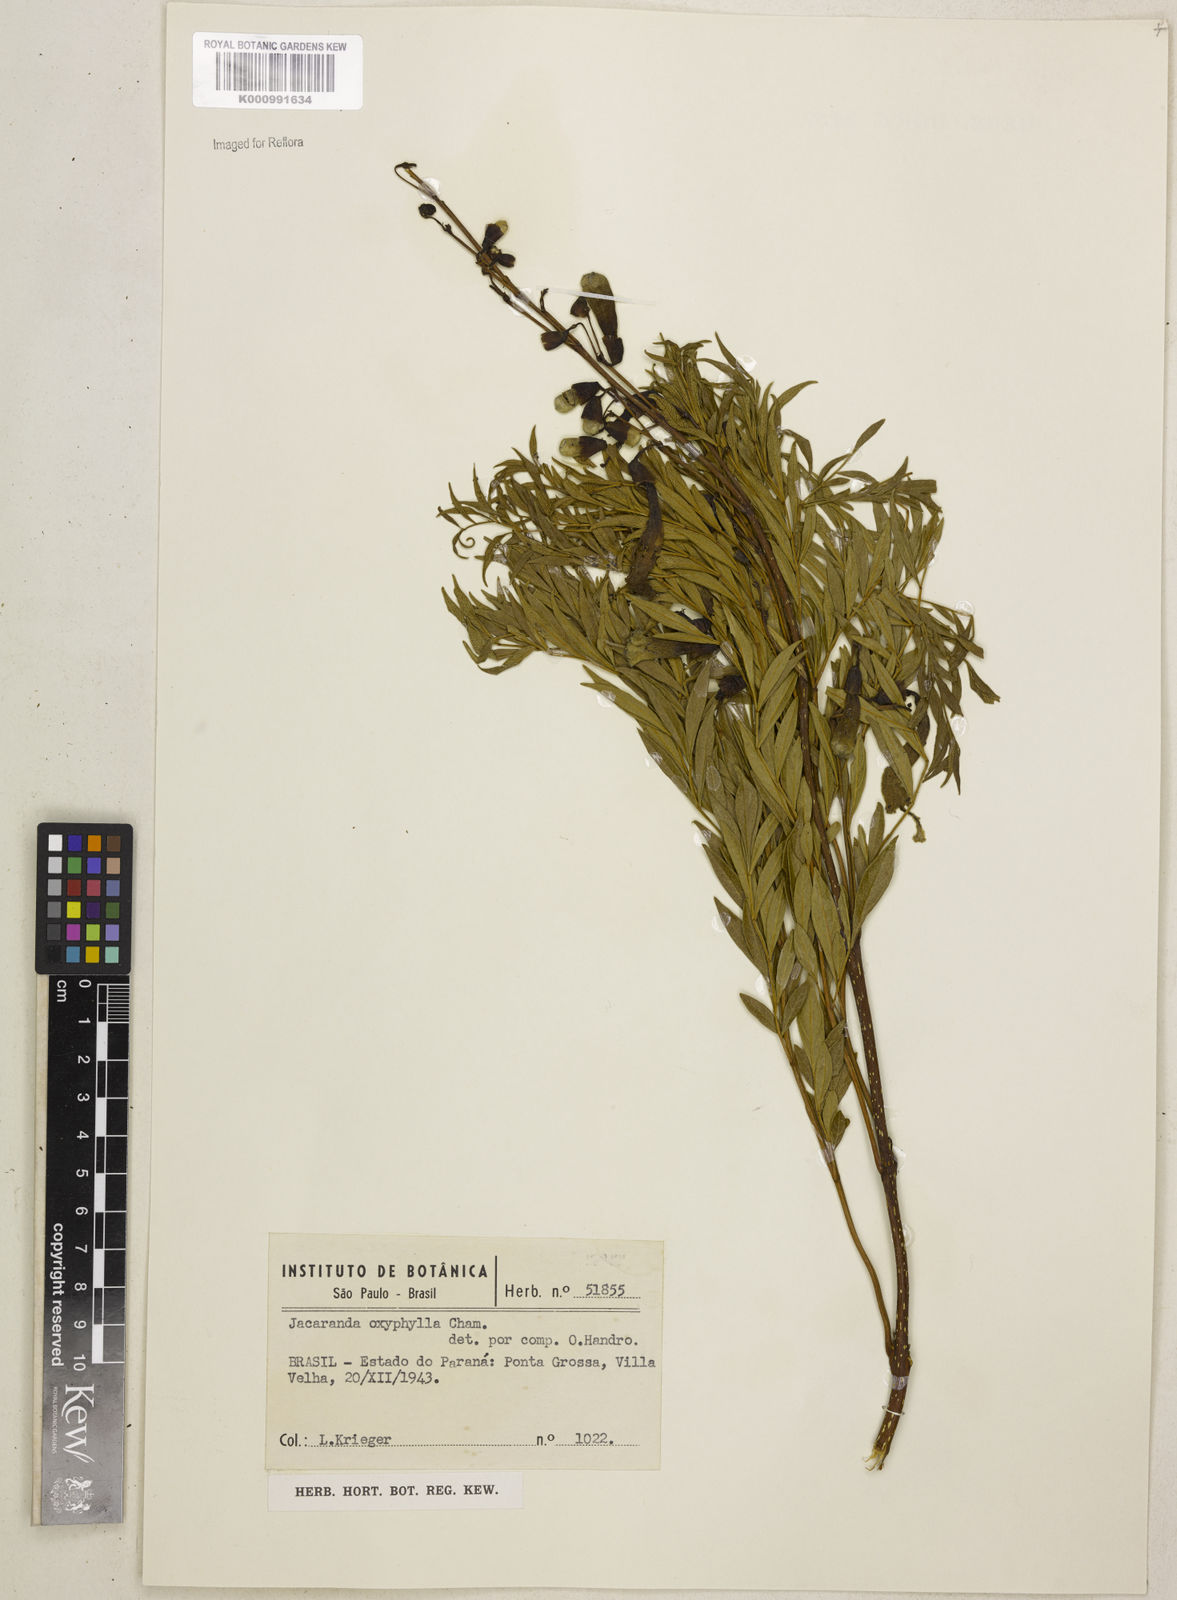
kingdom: Plantae
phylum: Tracheophyta
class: Magnoliopsida
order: Lamiales
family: Bignoniaceae
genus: Jacaranda
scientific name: Jacaranda caroba
